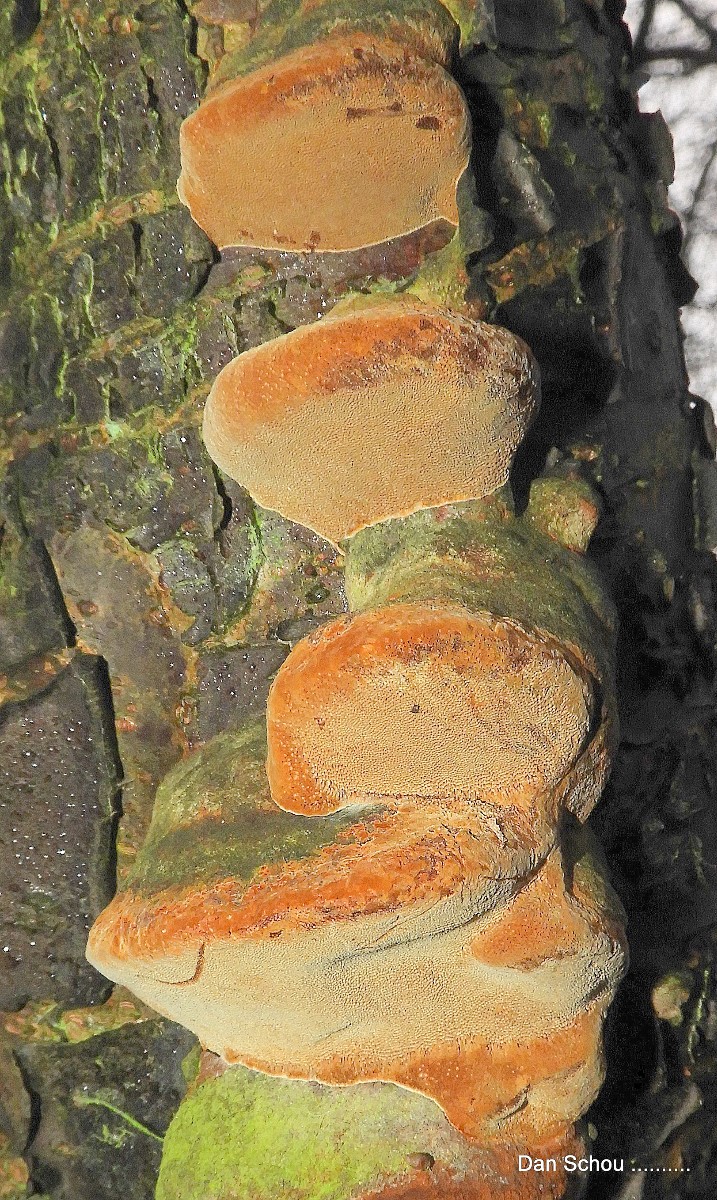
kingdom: Fungi
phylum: Basidiomycota
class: Agaricomycetes
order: Hymenochaetales
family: Hymenochaetaceae
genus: Phellinus
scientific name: Phellinus pomaceus
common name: blomme-ildporesvamp
